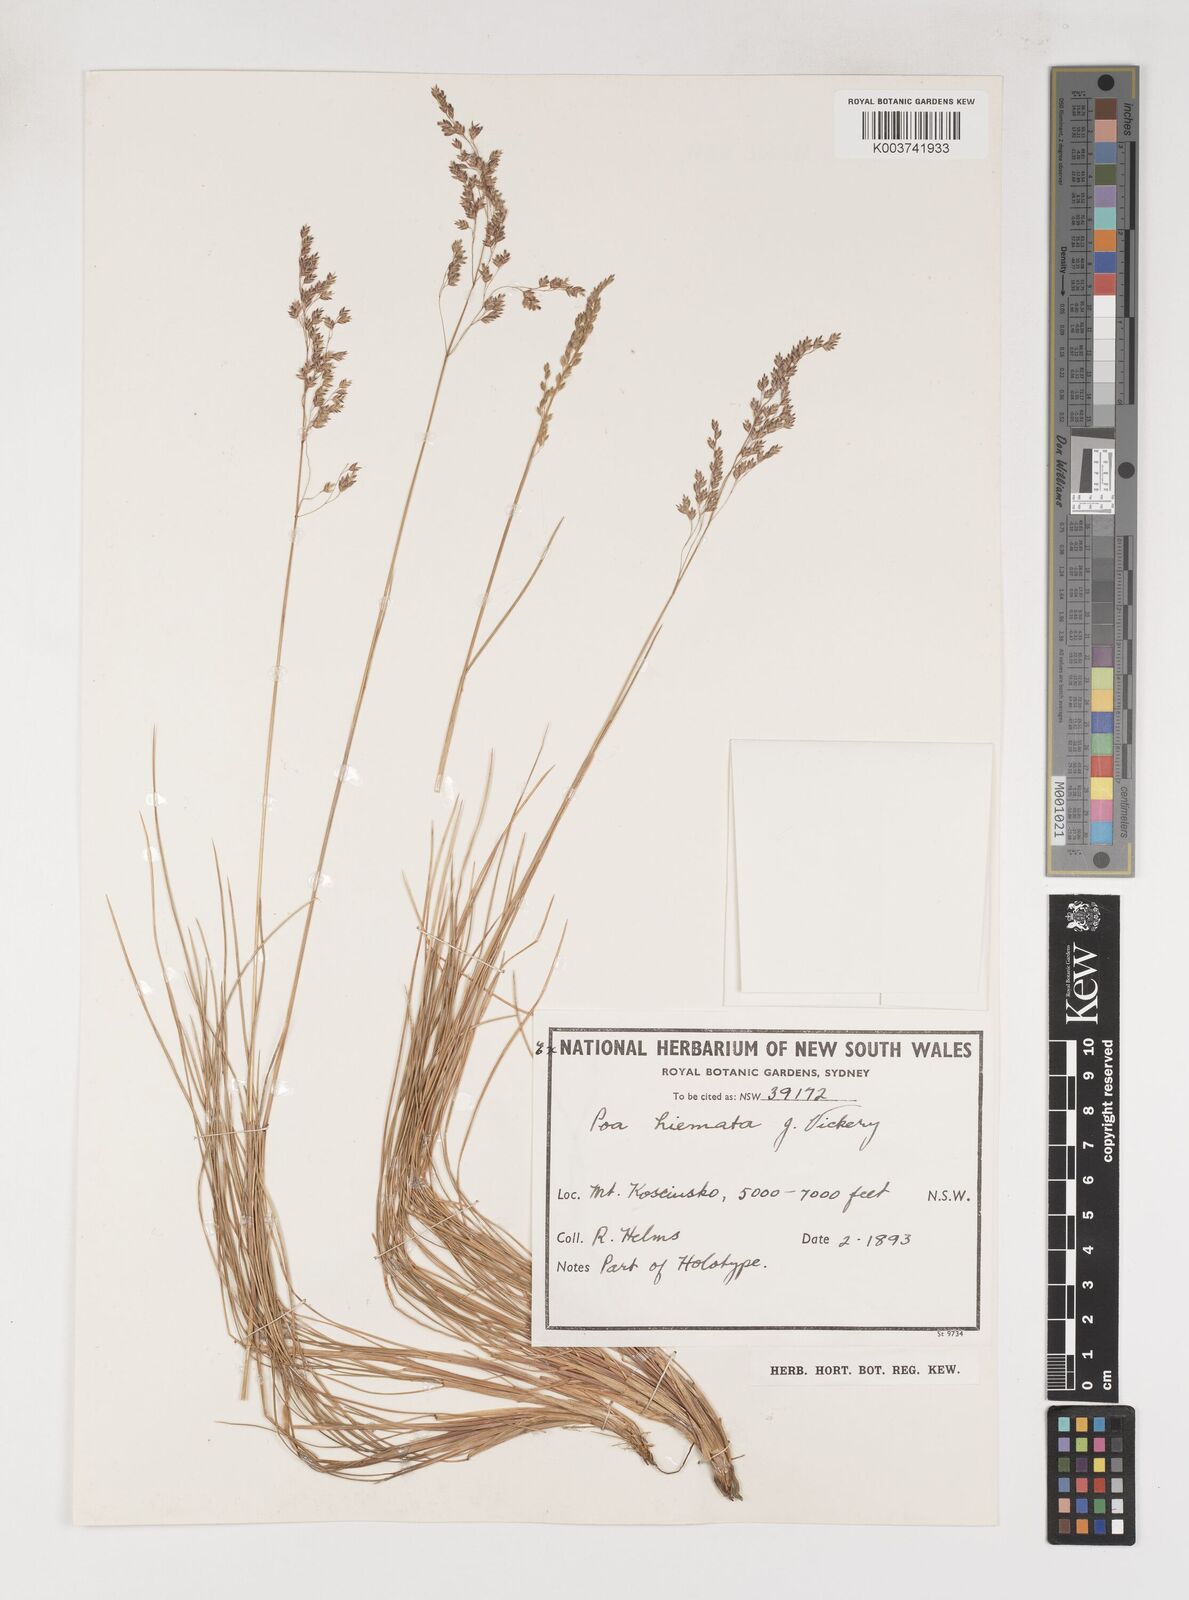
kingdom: Plantae
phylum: Tracheophyta
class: Liliopsida
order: Poales
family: Poaceae
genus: Poa
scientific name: Poa hiemata
